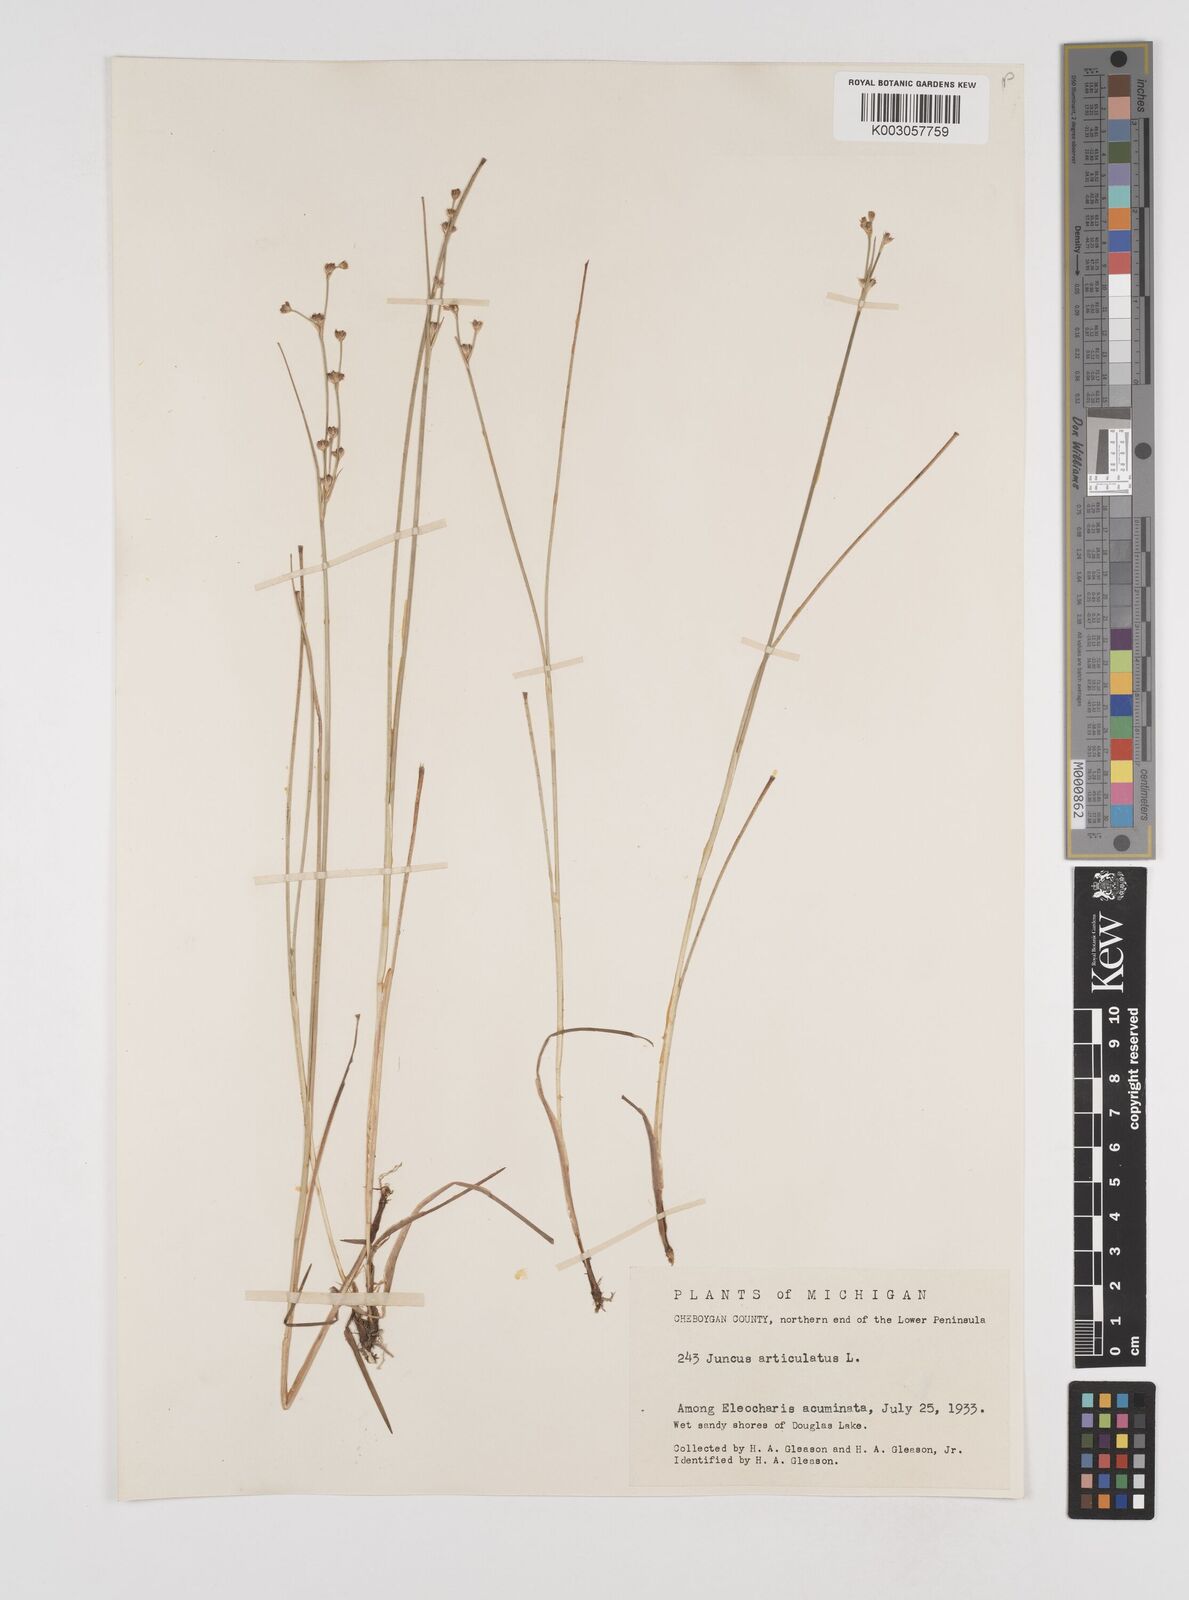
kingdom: Plantae
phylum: Tracheophyta
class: Liliopsida
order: Poales
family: Juncaceae
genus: Juncus
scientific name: Juncus articulatus
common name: Jointed rush
